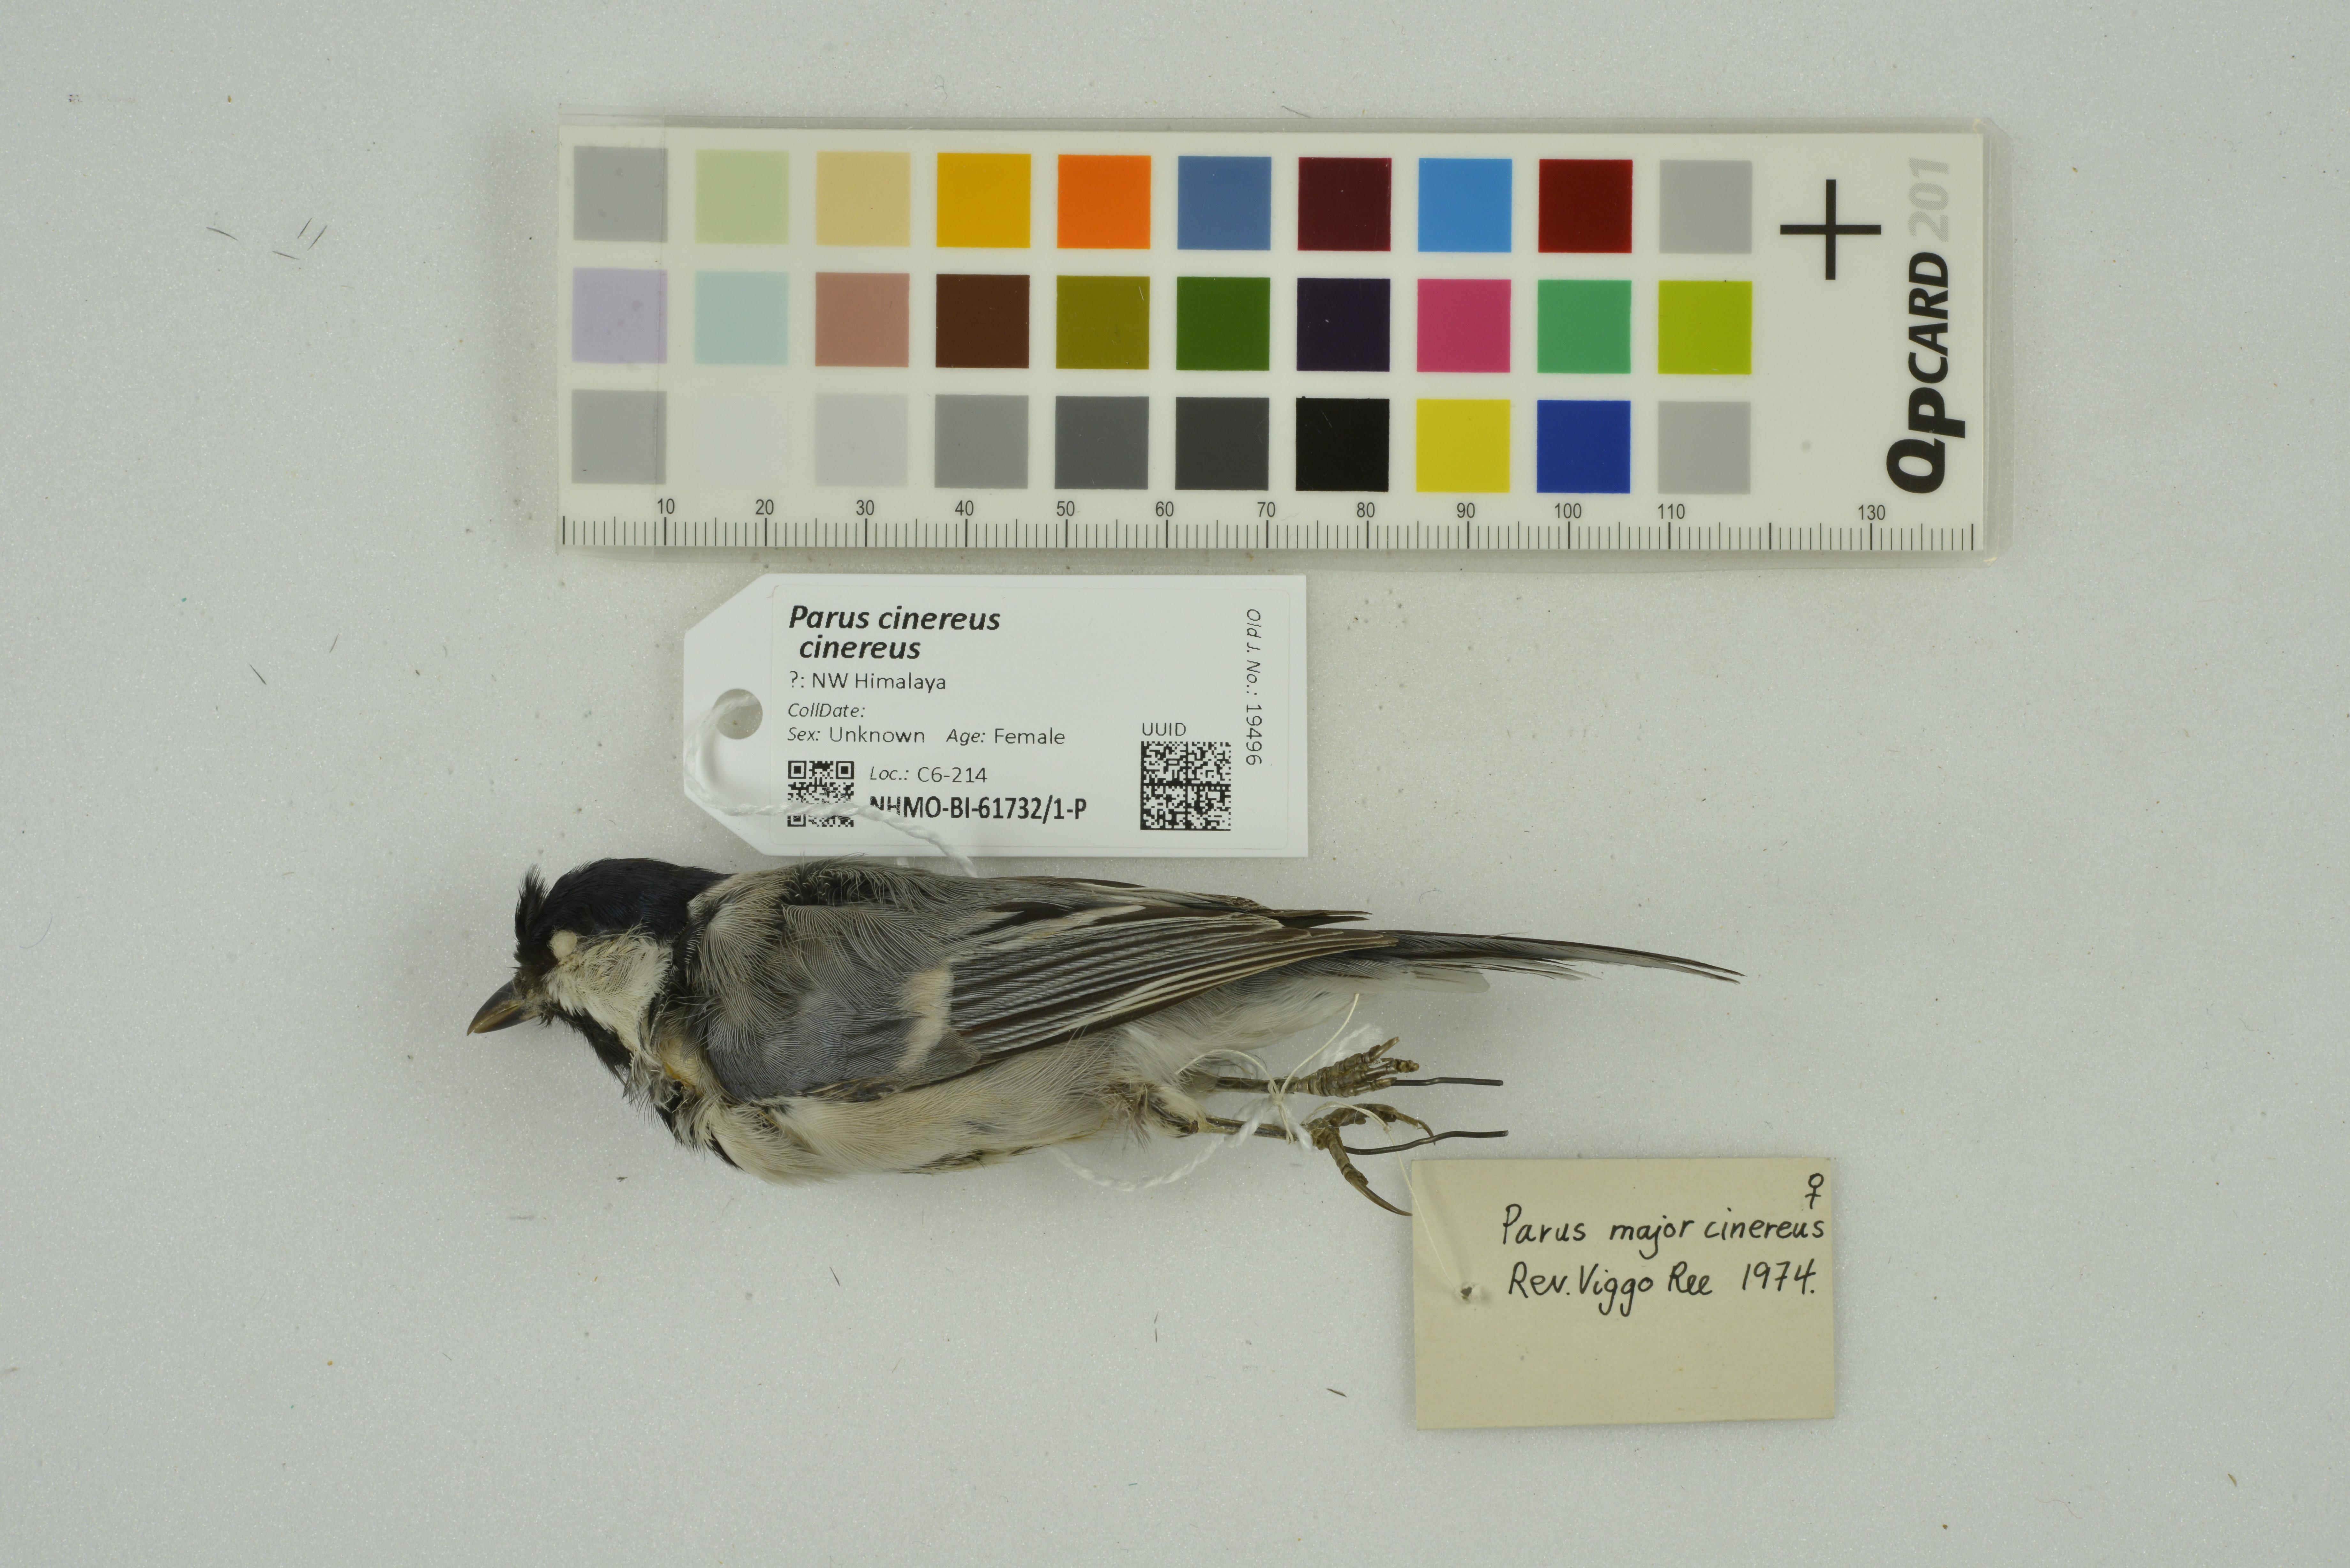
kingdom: Animalia
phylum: Chordata
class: Aves
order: Passeriformes
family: Paridae
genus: Parus
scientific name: Parus cinereus
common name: Cinereous tit
